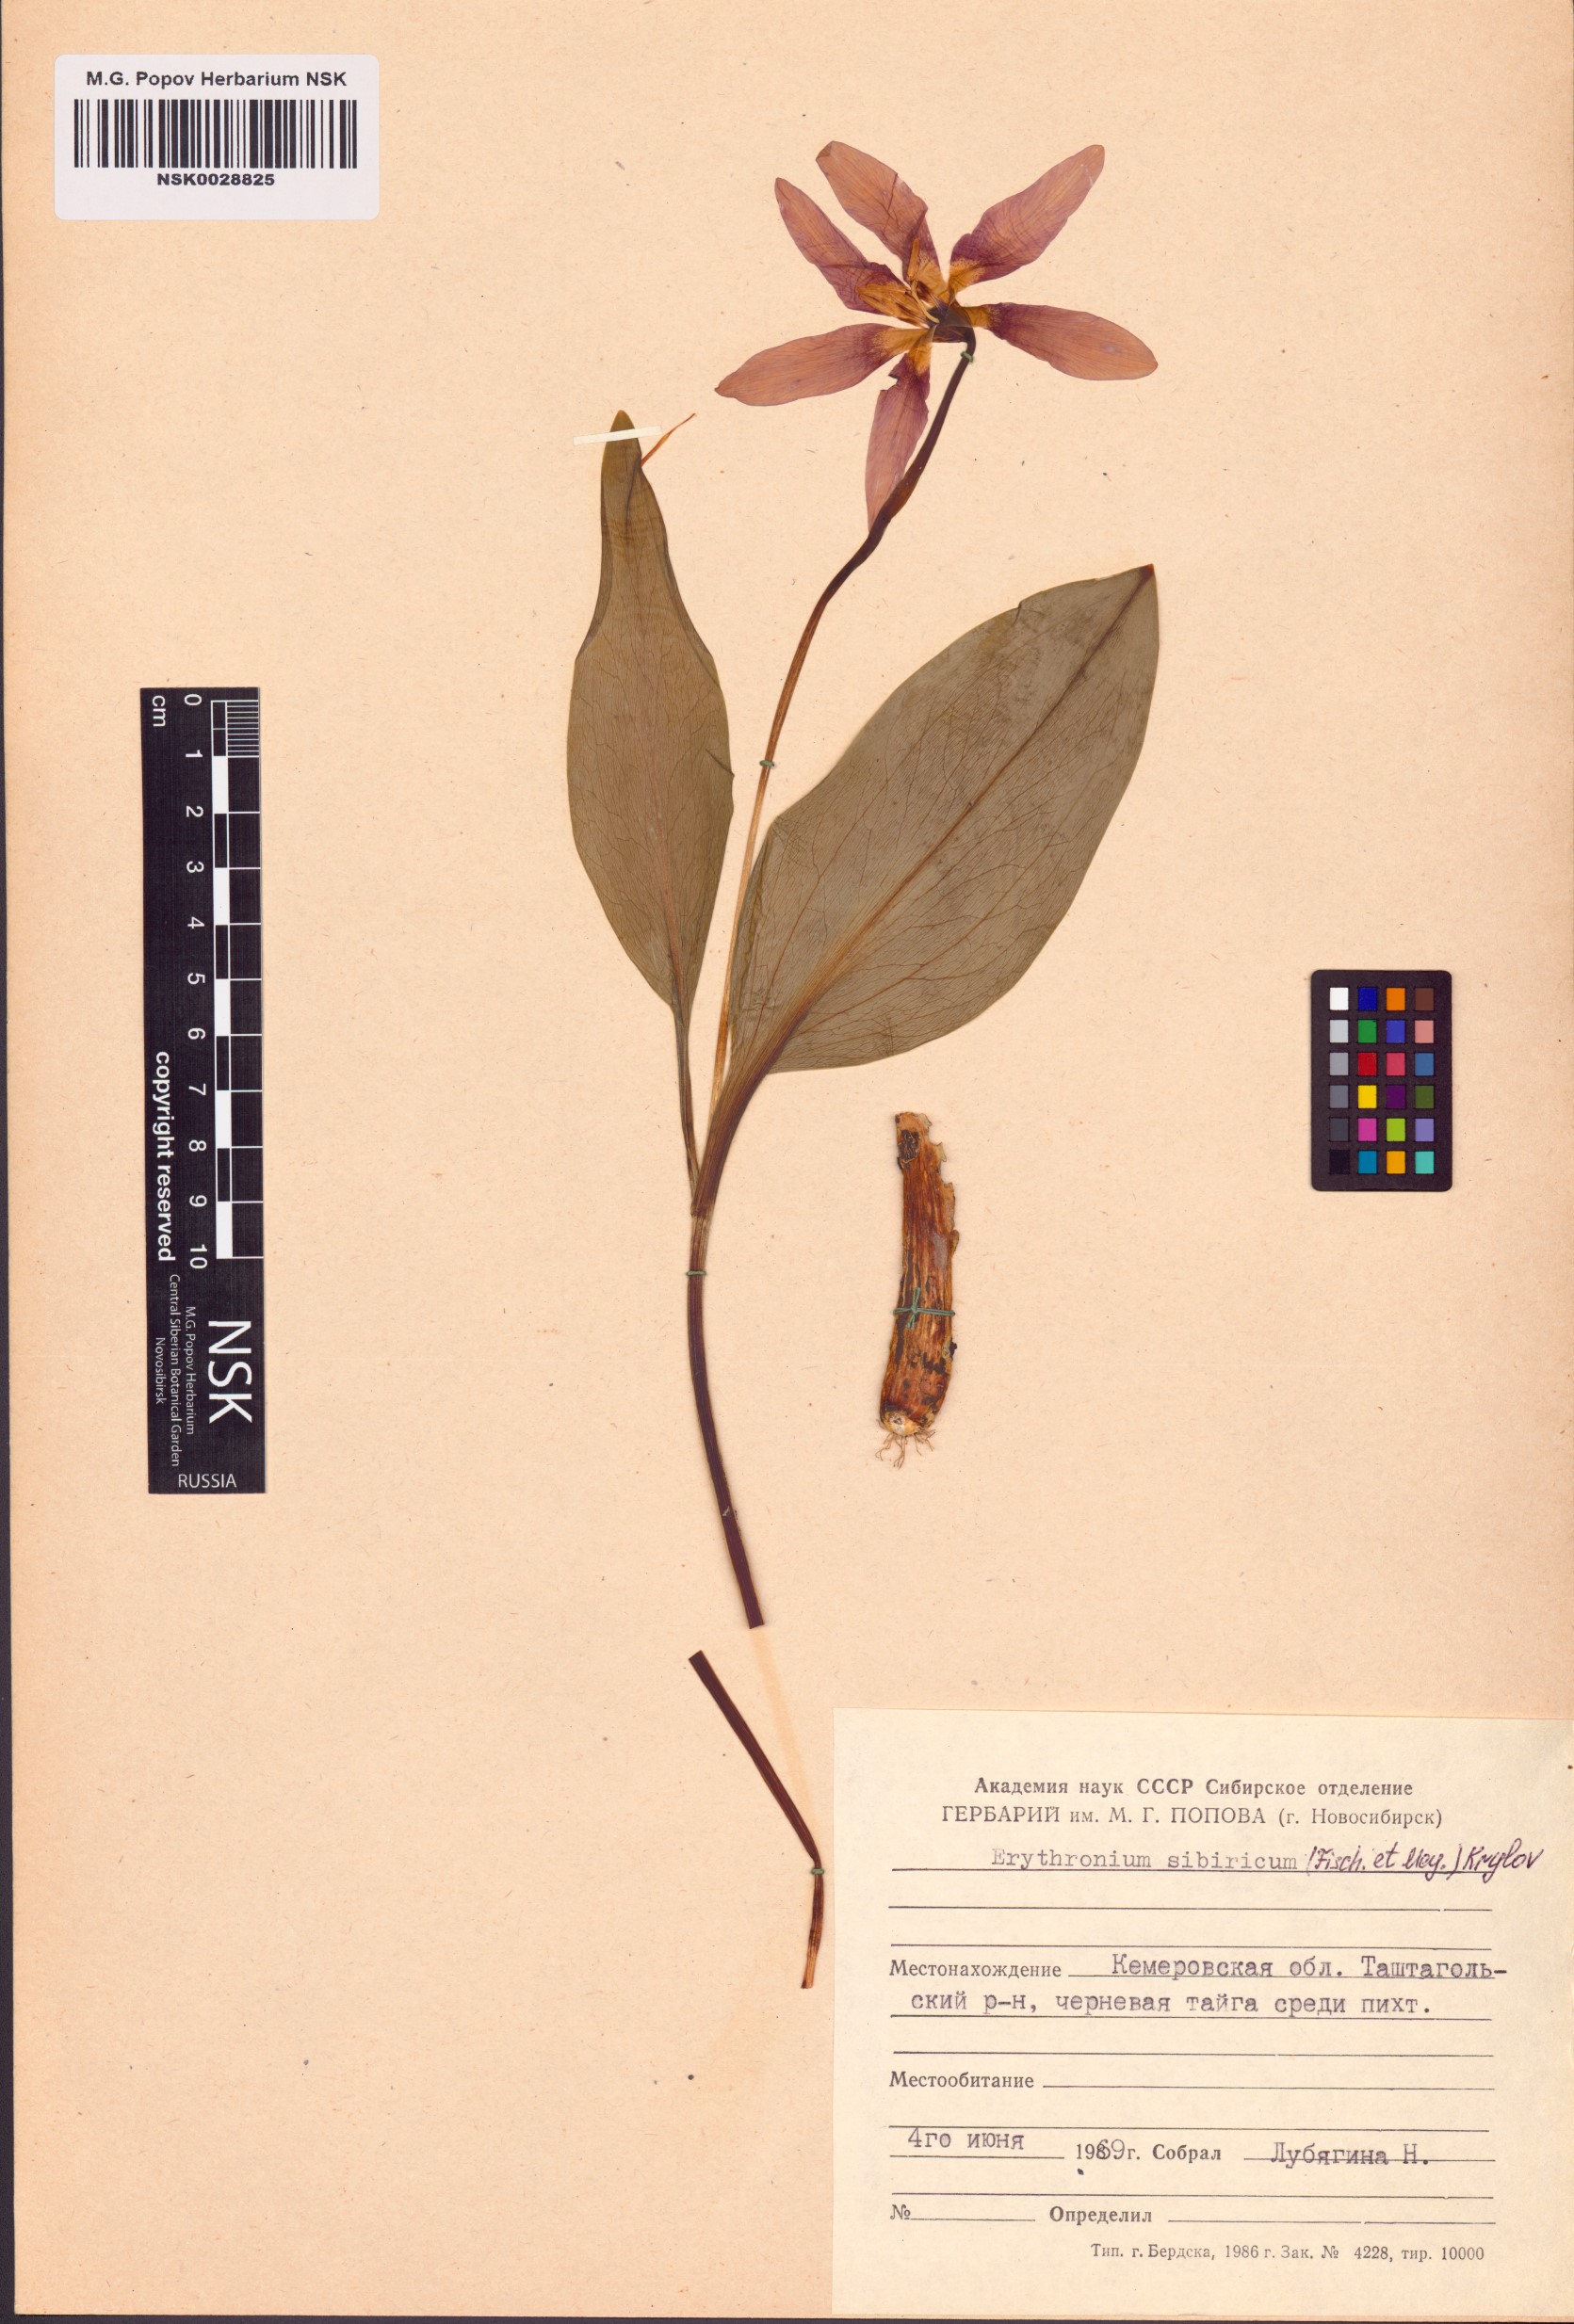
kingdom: Plantae
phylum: Tracheophyta
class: Liliopsida
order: Liliales
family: Liliaceae
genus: Erythronium
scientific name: Erythronium sibiricum
